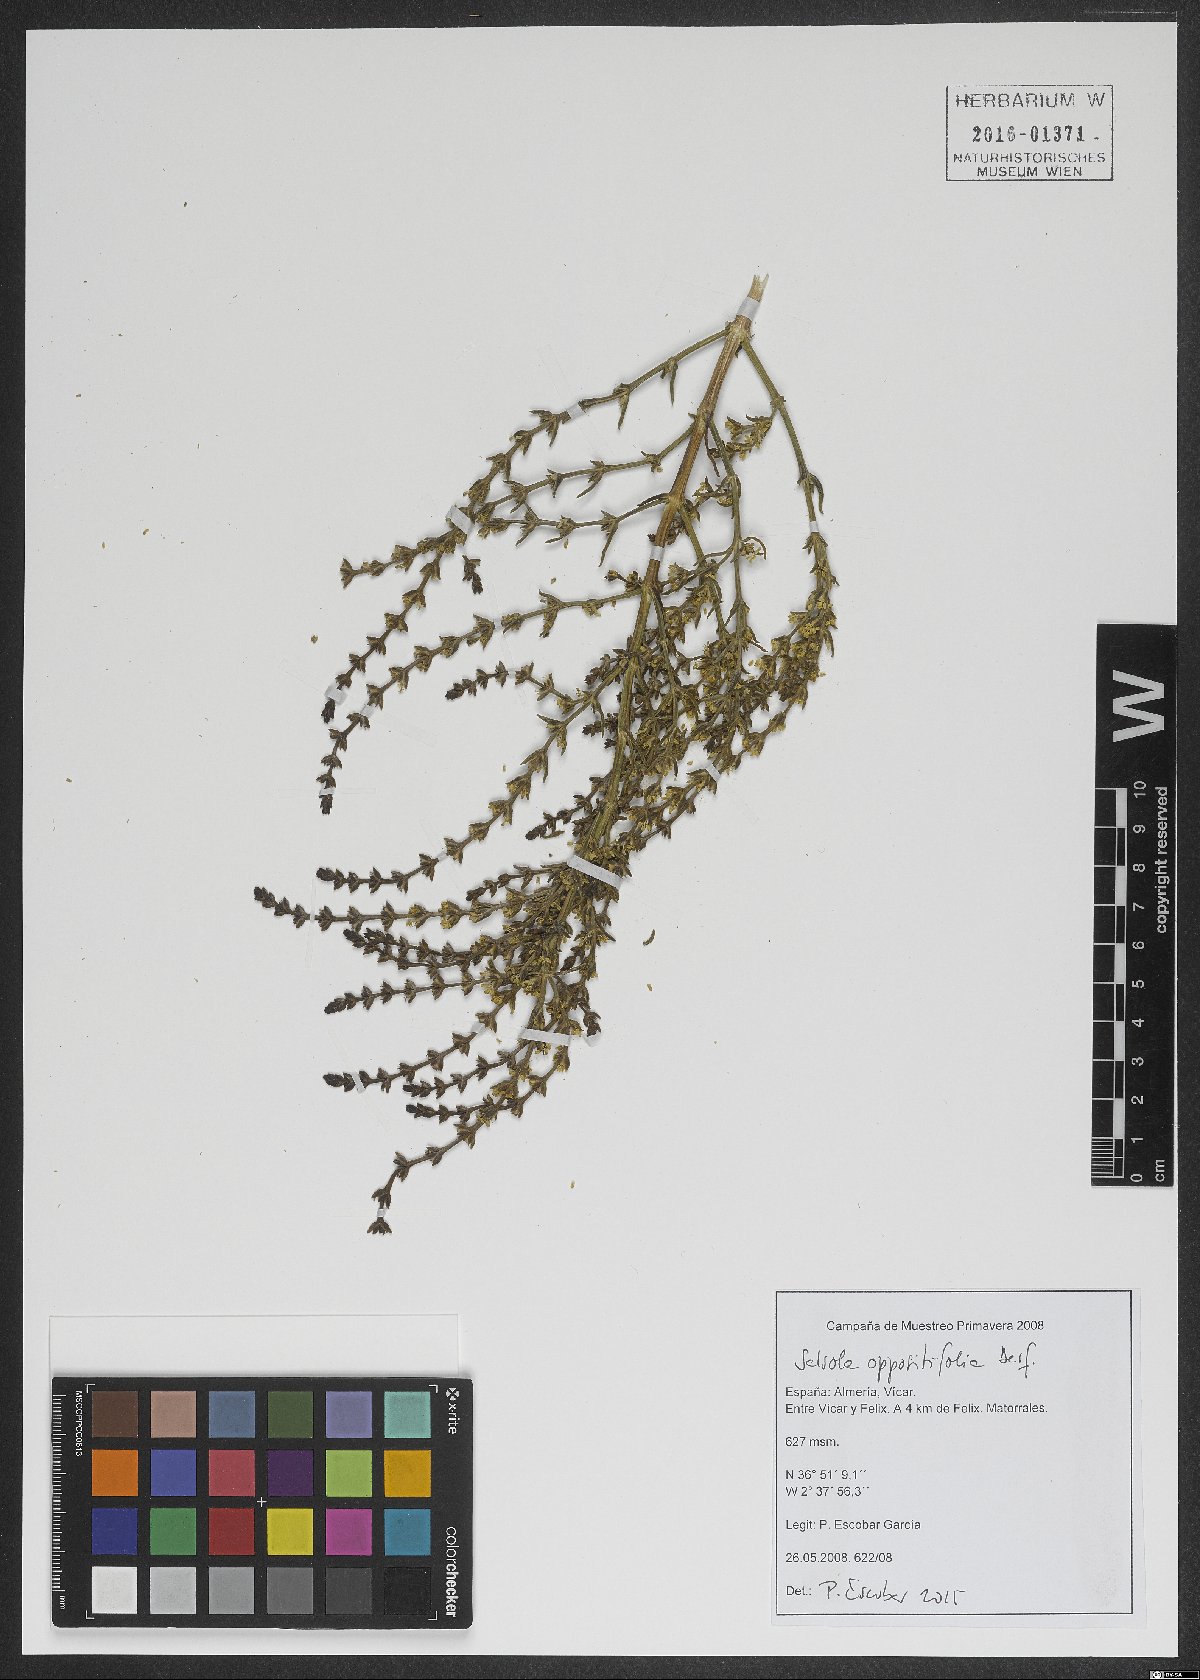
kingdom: Plantae
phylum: Tracheophyta
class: Magnoliopsida
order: Caryophyllales
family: Amaranthaceae
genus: Soda
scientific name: Soda oppositifolia
